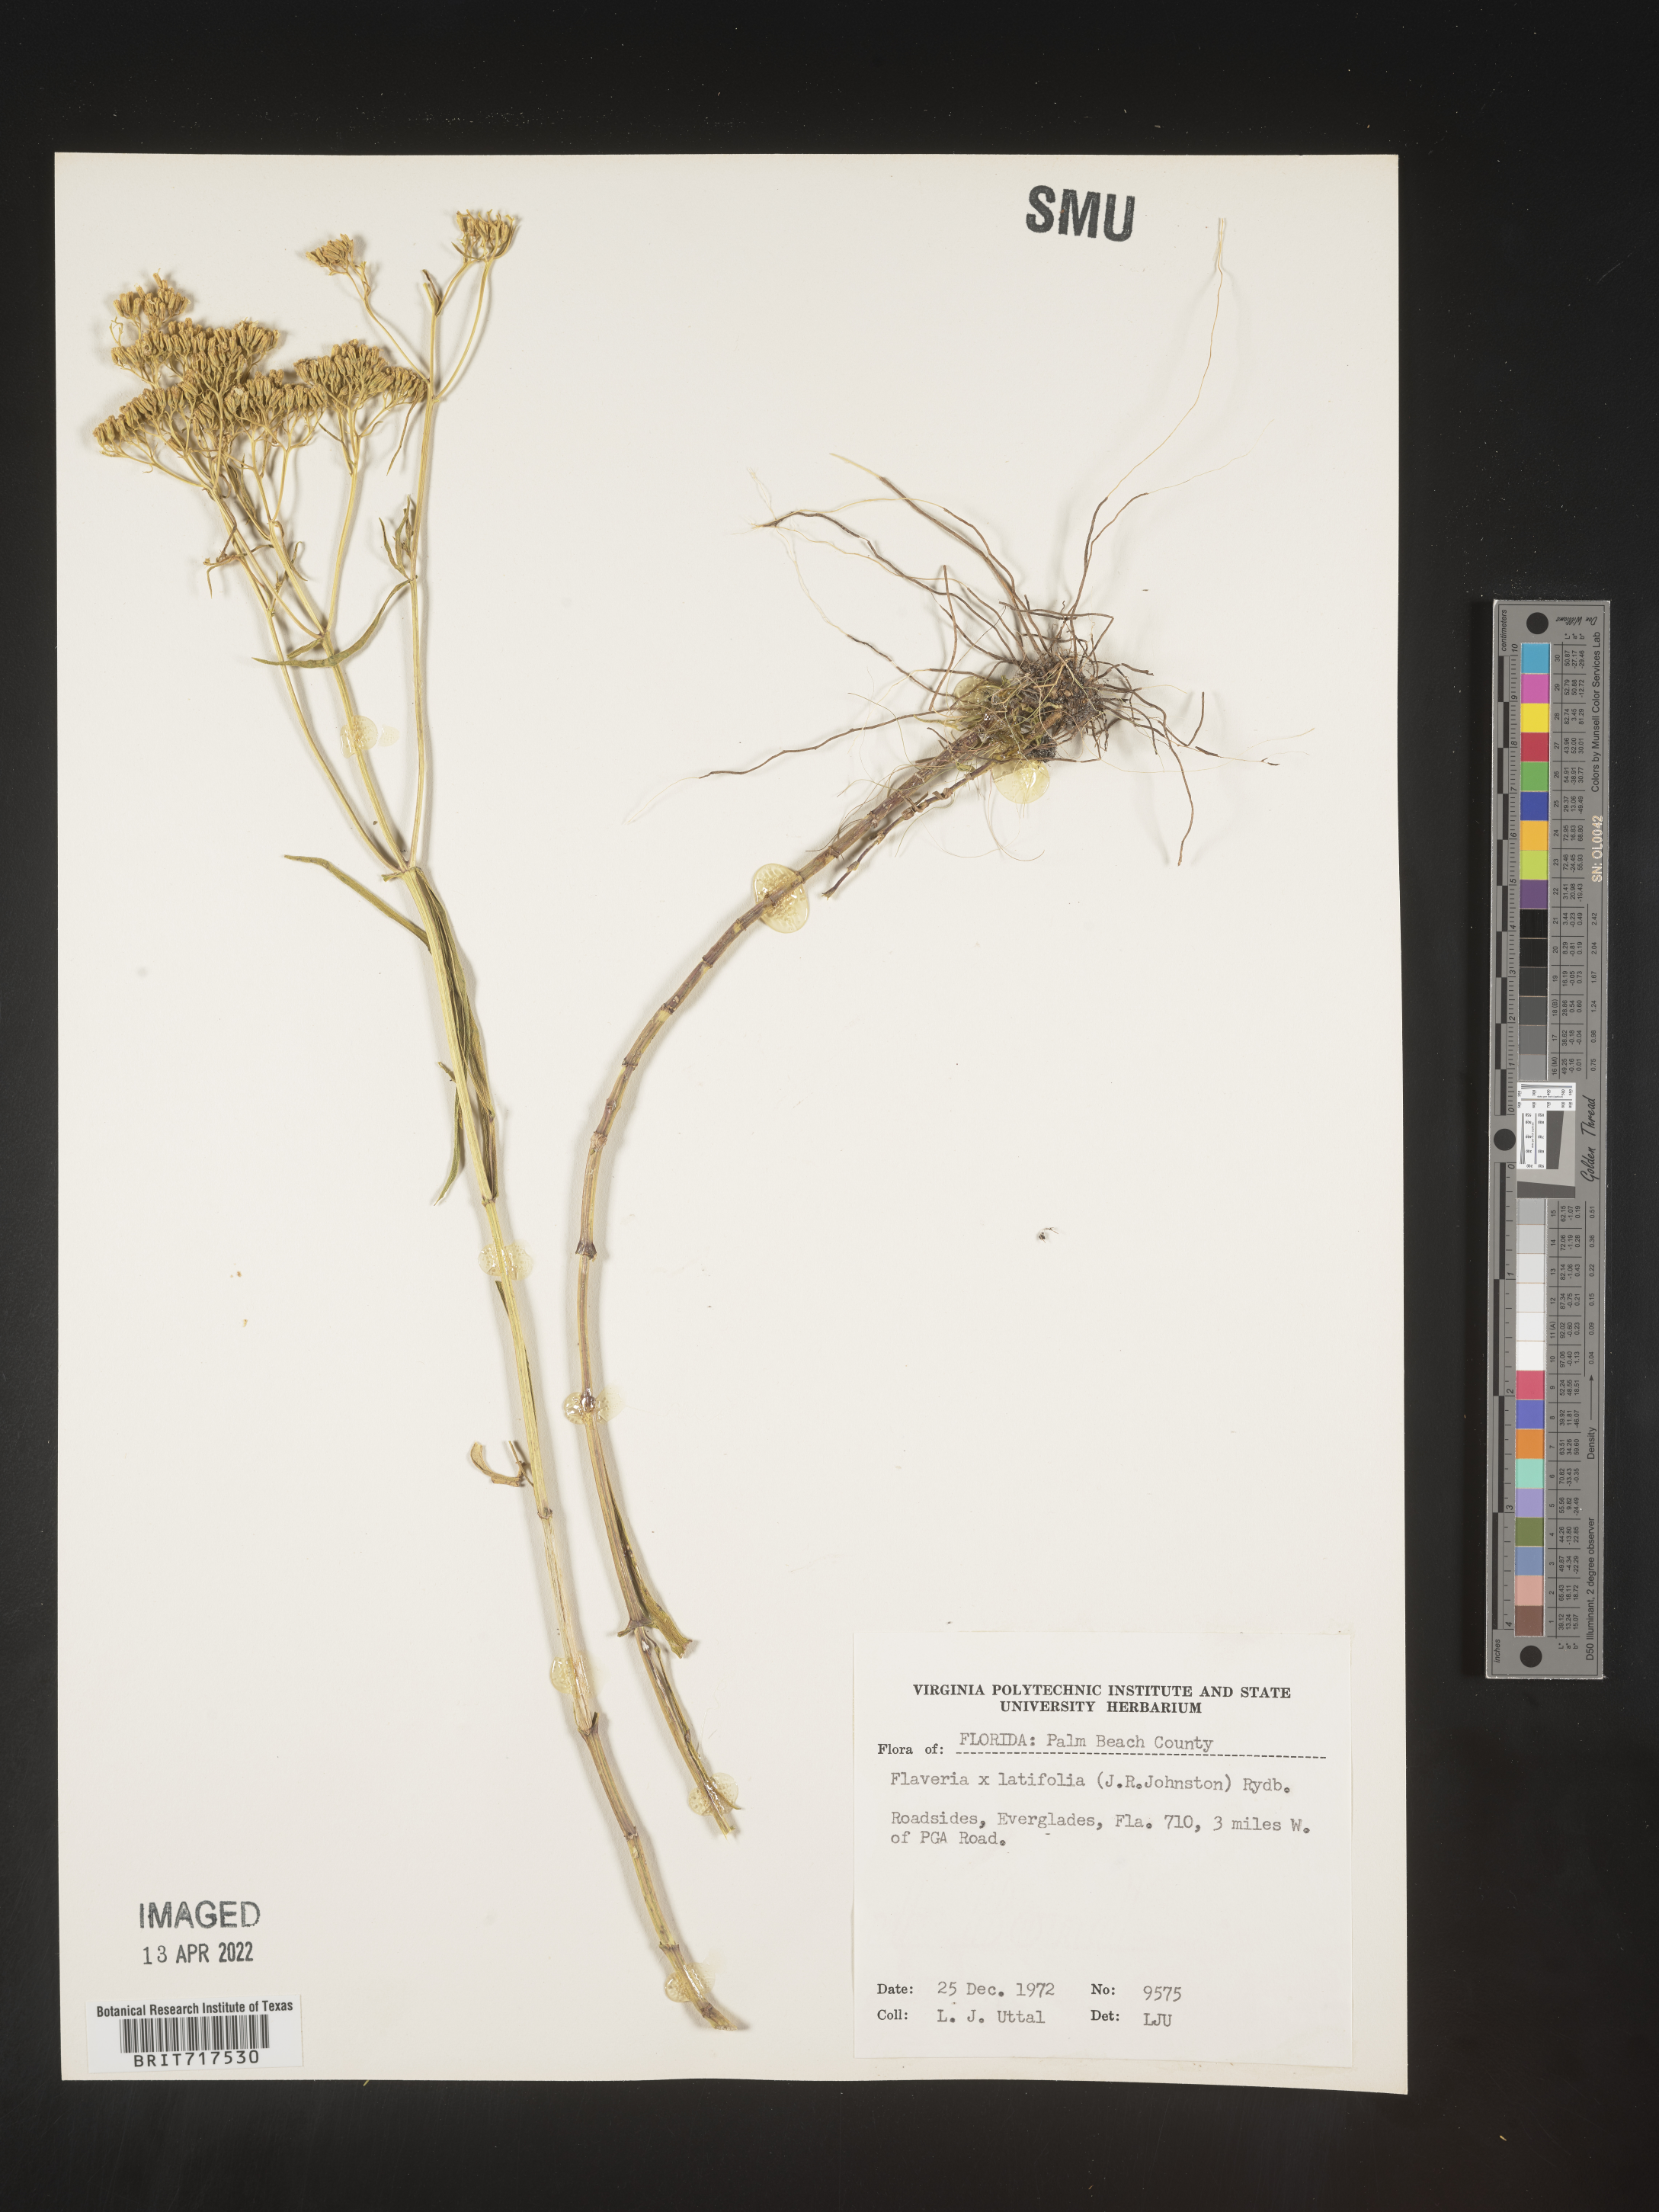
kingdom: Plantae
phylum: Tracheophyta
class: Magnoliopsida
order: Asterales
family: Asteraceae
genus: Flaveria
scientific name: Flaveria linearis
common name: Yellowtop
